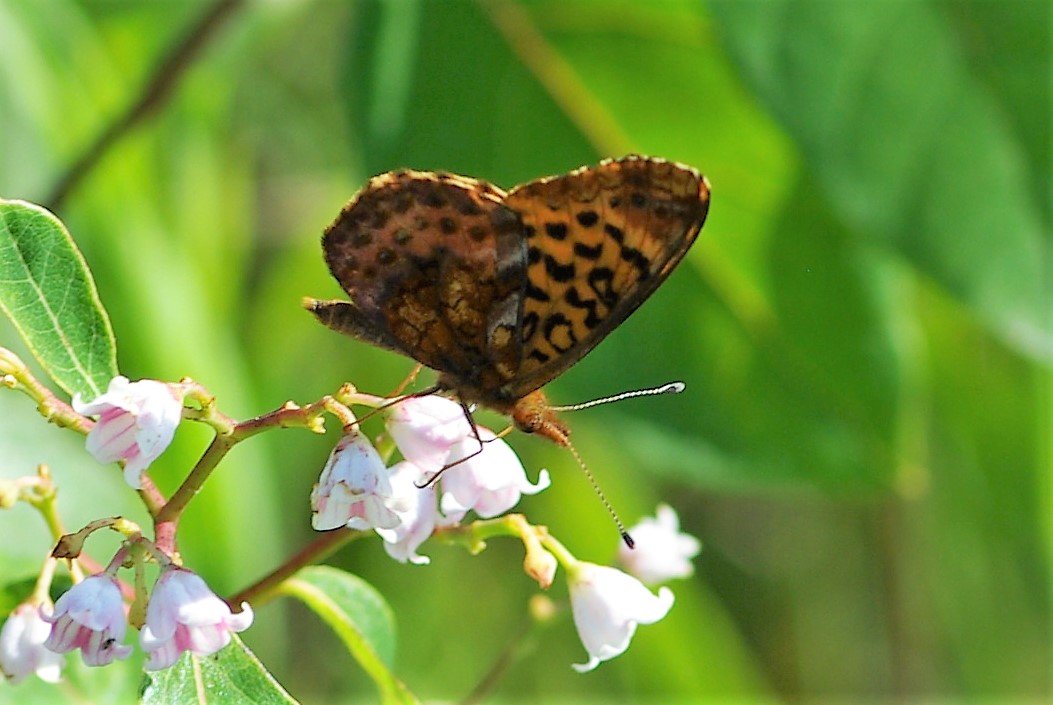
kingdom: Animalia
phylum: Arthropoda
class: Insecta
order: Lepidoptera
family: Nymphalidae
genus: Clossiana
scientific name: Clossiana toddi
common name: Meadow Fritillary
